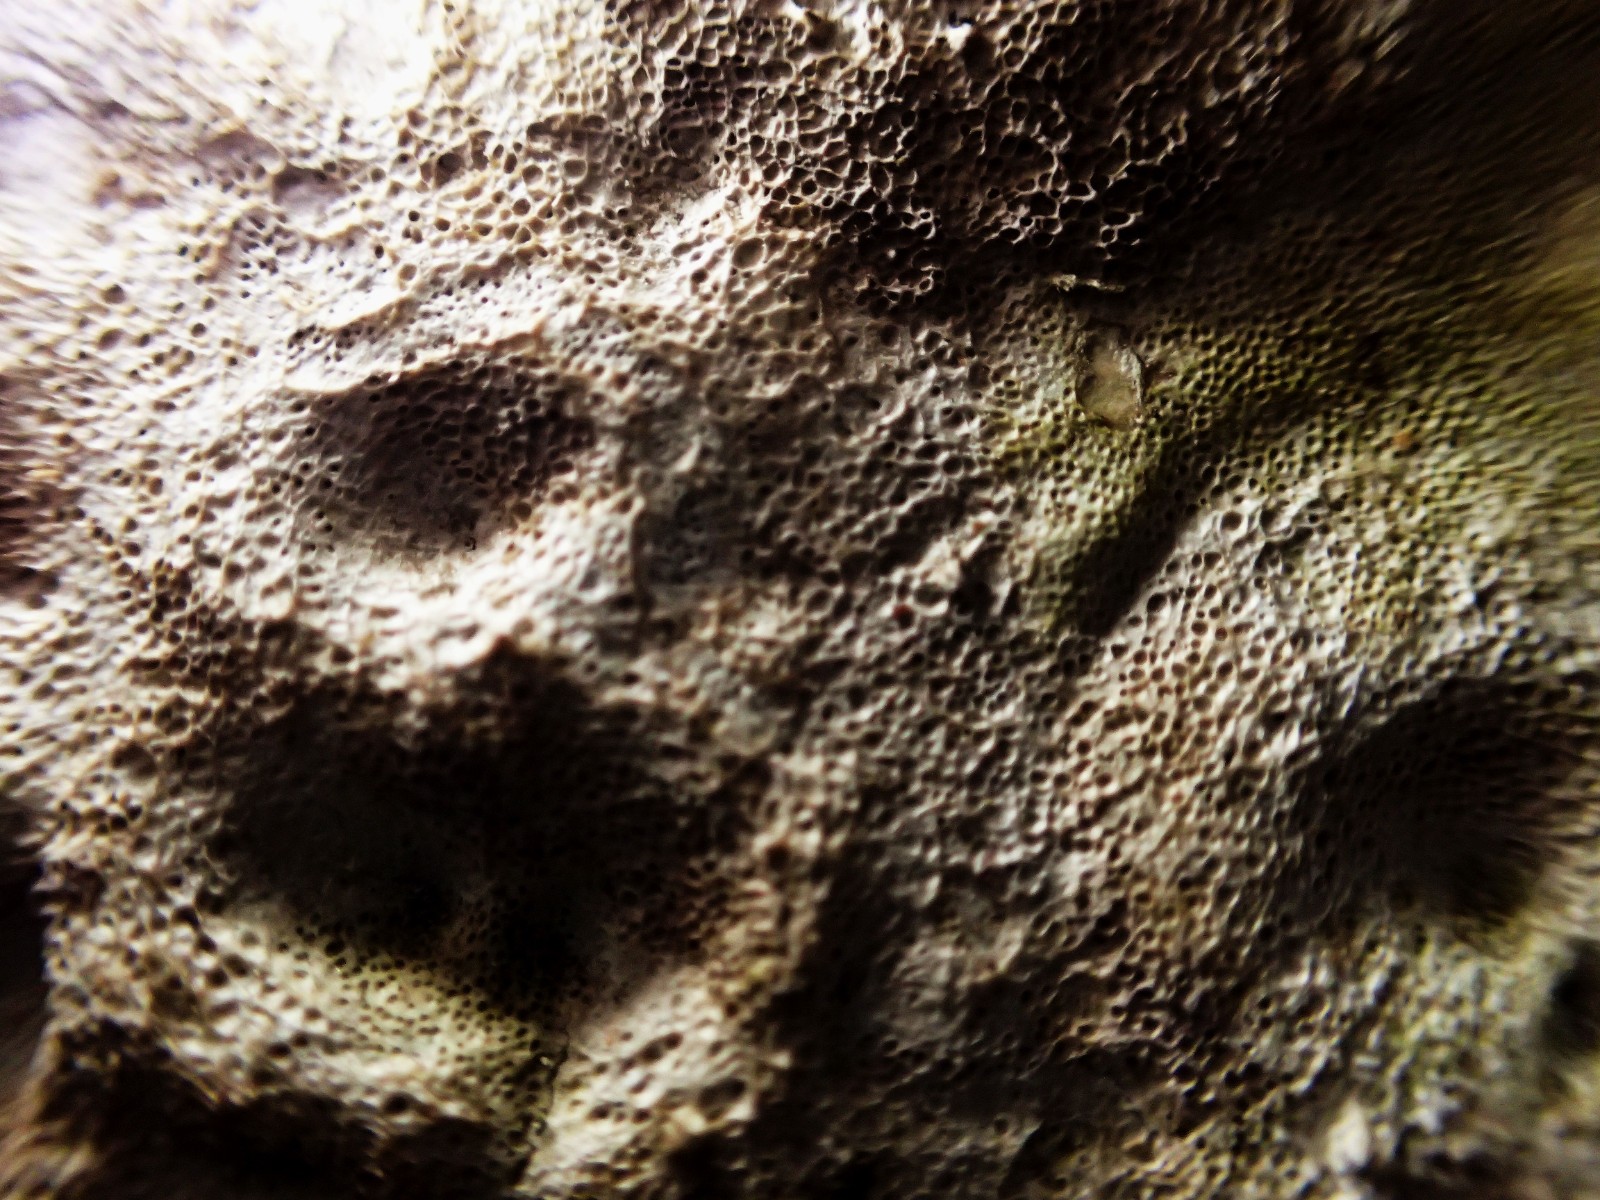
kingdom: Fungi
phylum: Basidiomycota
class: Agaricomycetes
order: Polyporales
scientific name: Polyporales
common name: poresvampordenen
